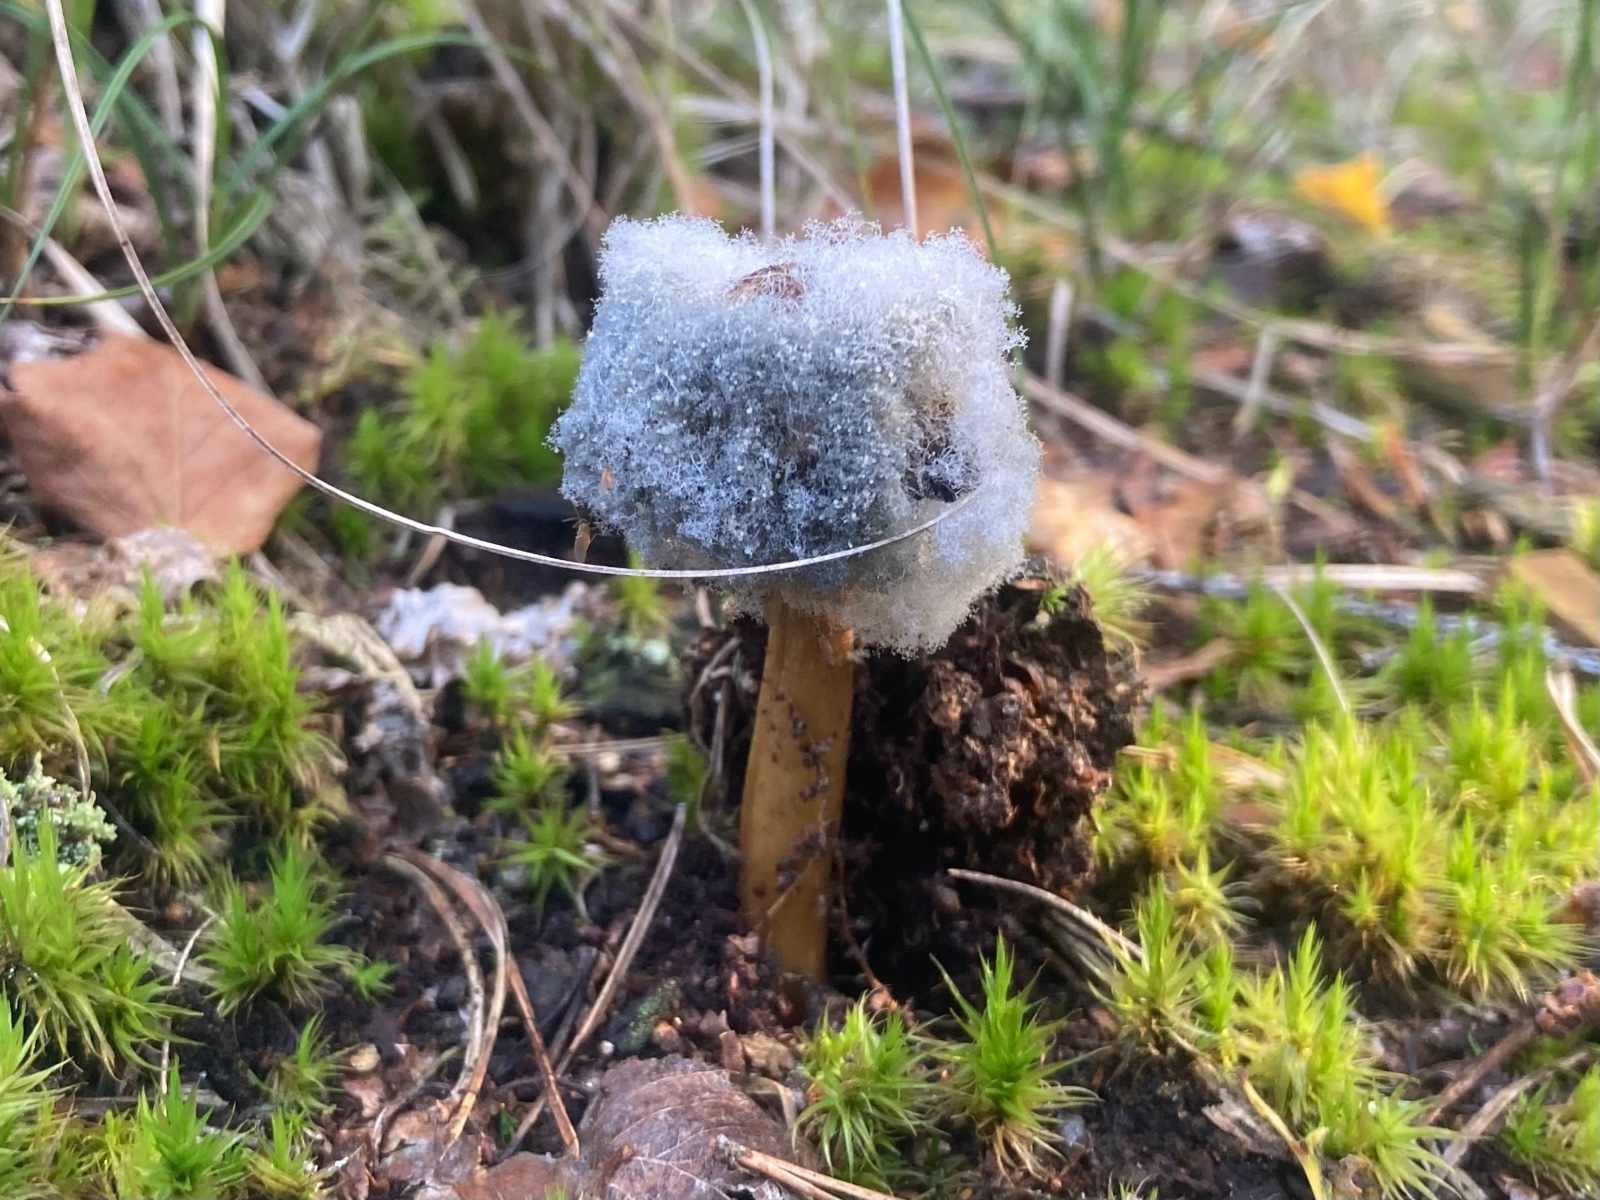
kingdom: Fungi
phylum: Mucoromycota
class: Mucoromycetes
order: Mucorales
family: Rhizopodaceae
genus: Syzygites
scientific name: Syzygites megalocarpus
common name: nissenål
